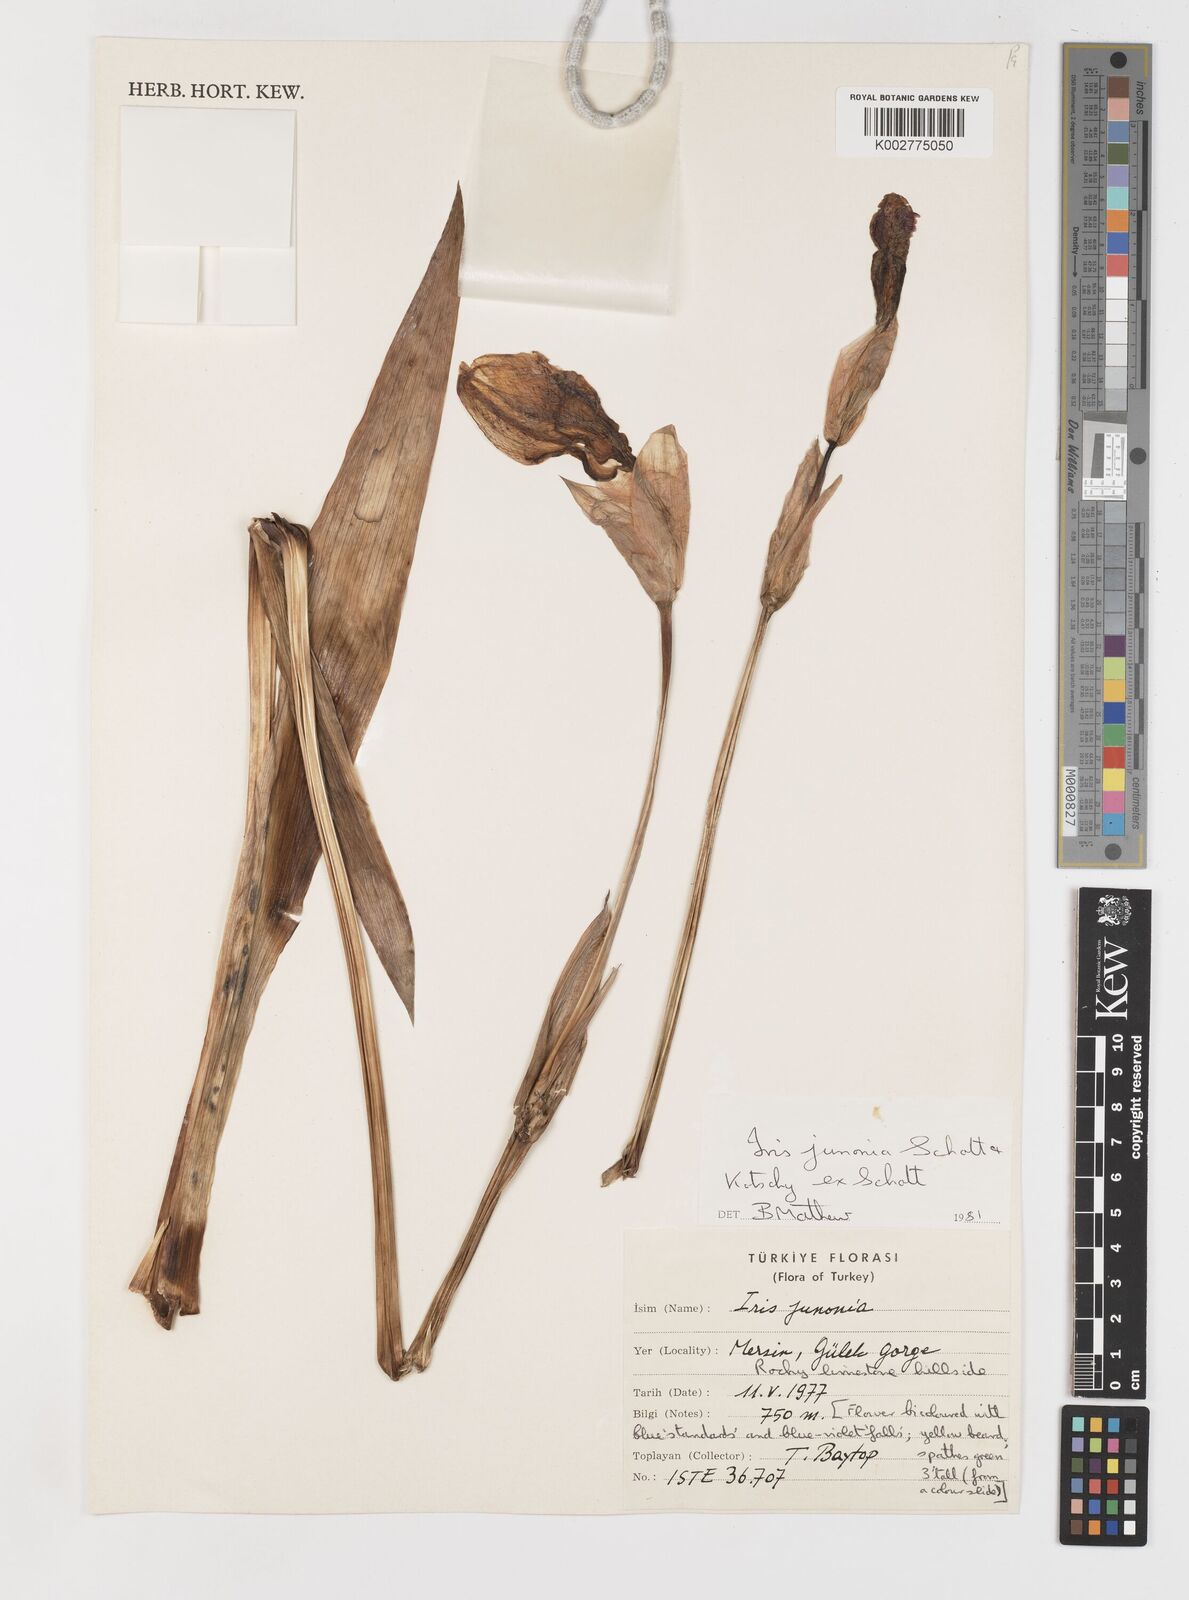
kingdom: Plantae
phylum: Tracheophyta
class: Liliopsida
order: Asparagales
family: Iridaceae
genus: Iris
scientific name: Iris junonia
